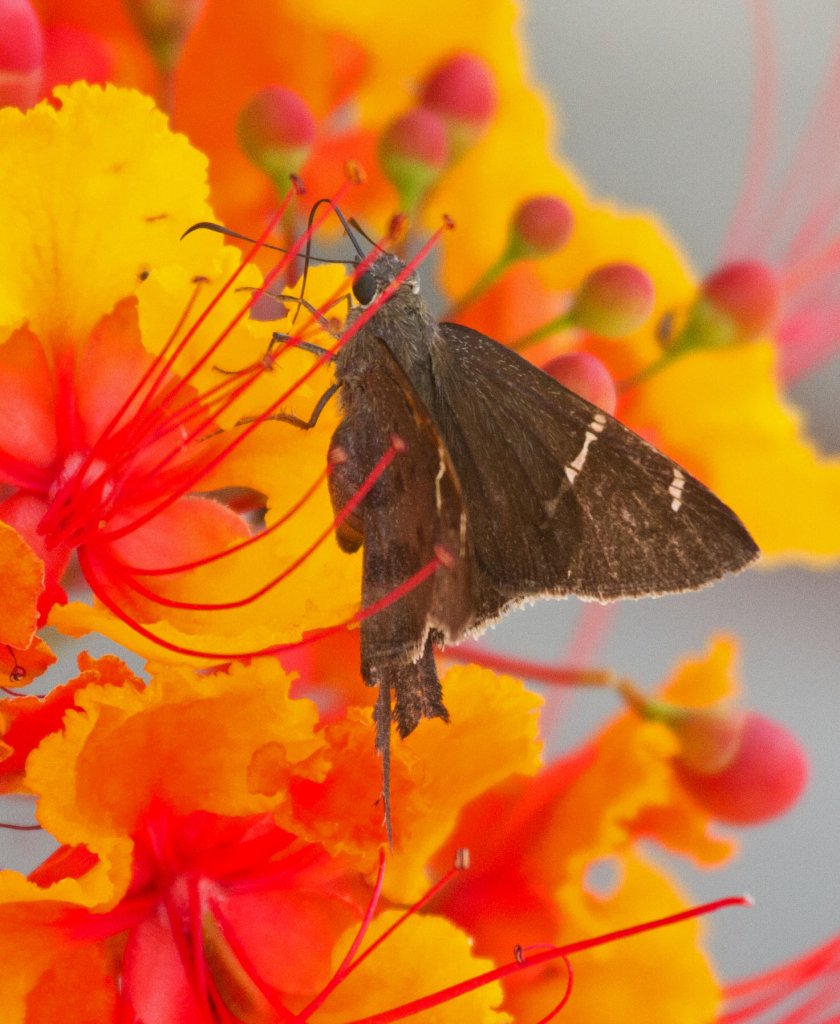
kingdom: Animalia
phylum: Arthropoda
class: Insecta
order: Lepidoptera
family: Hesperiidae
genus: Urbanus
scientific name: Urbanus teleus
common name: Teleus Longtail
